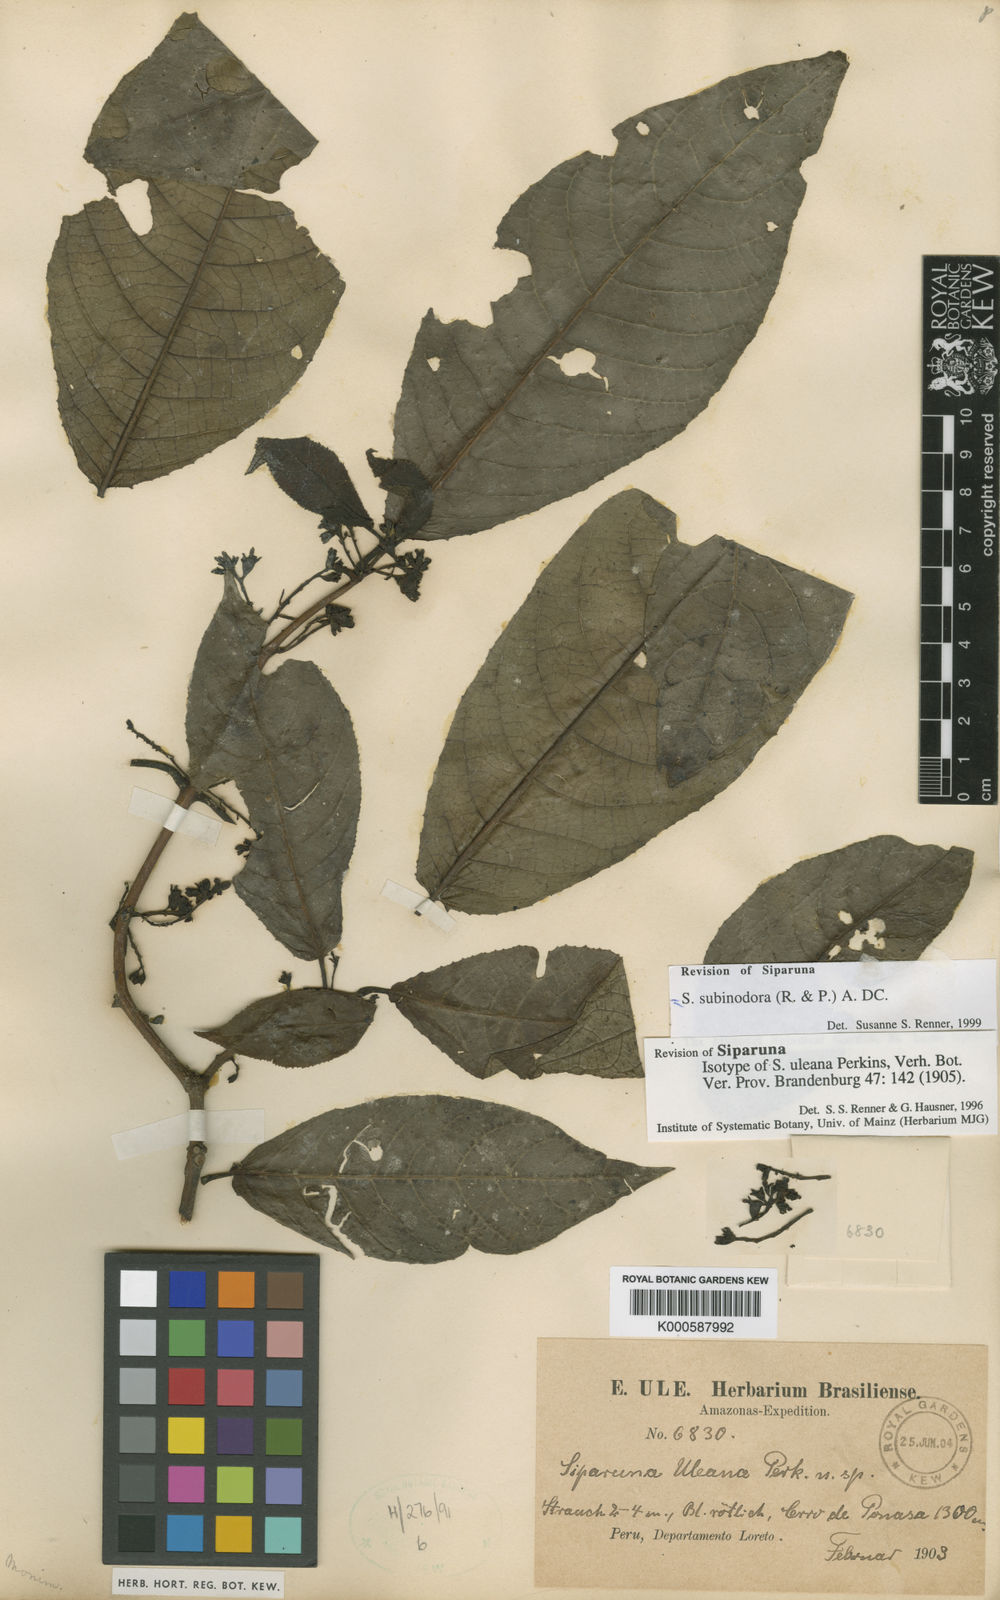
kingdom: Plantae
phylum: Tracheophyta
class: Magnoliopsida
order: Laurales
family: Siparunaceae
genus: Siparuna
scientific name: Siparuna subinodora
